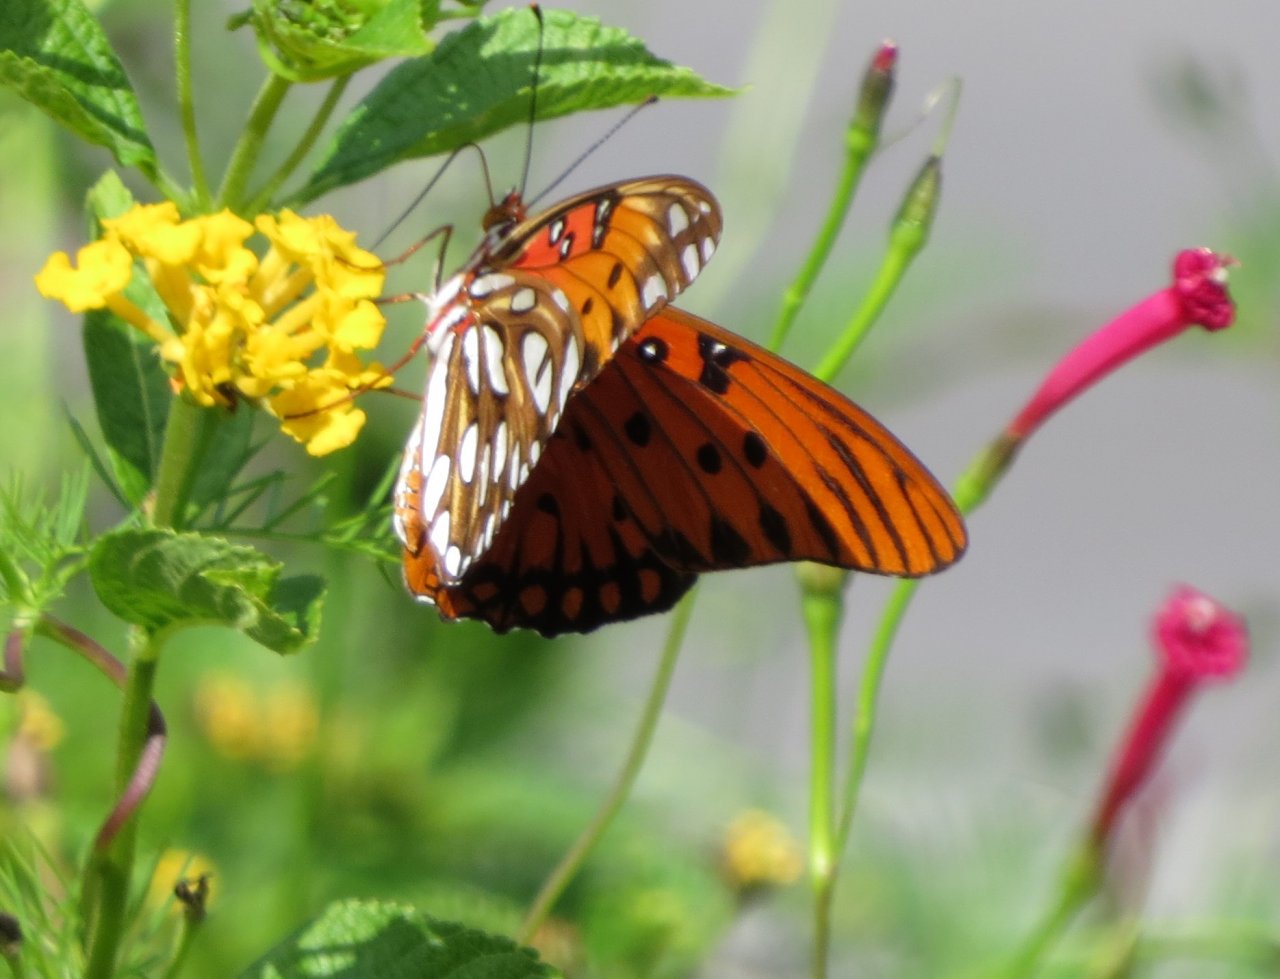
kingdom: Animalia
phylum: Arthropoda
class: Insecta
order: Lepidoptera
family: Nymphalidae
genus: Dione
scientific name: Dione vanillae
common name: Gulf Fritillary
